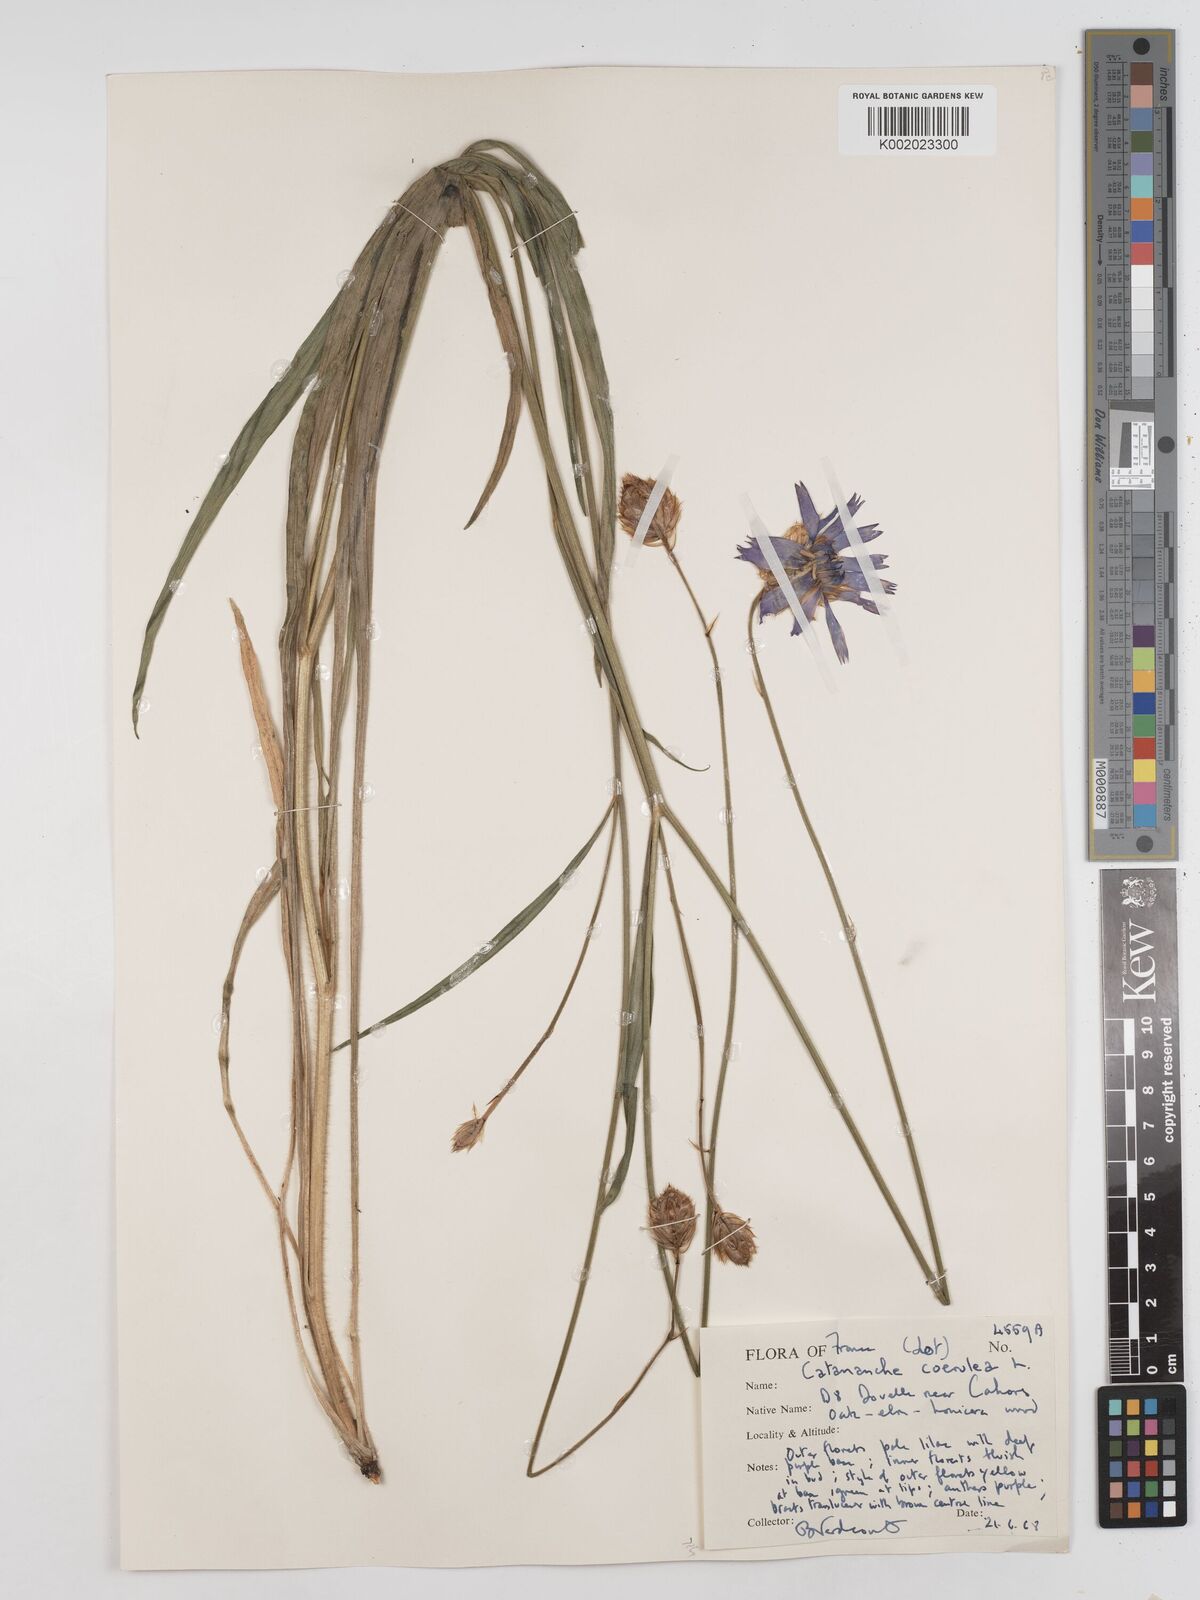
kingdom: Plantae
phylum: Tracheophyta
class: Magnoliopsida
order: Asterales
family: Asteraceae
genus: Catananche
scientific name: Catananche caerulea
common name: Blue cupidone
